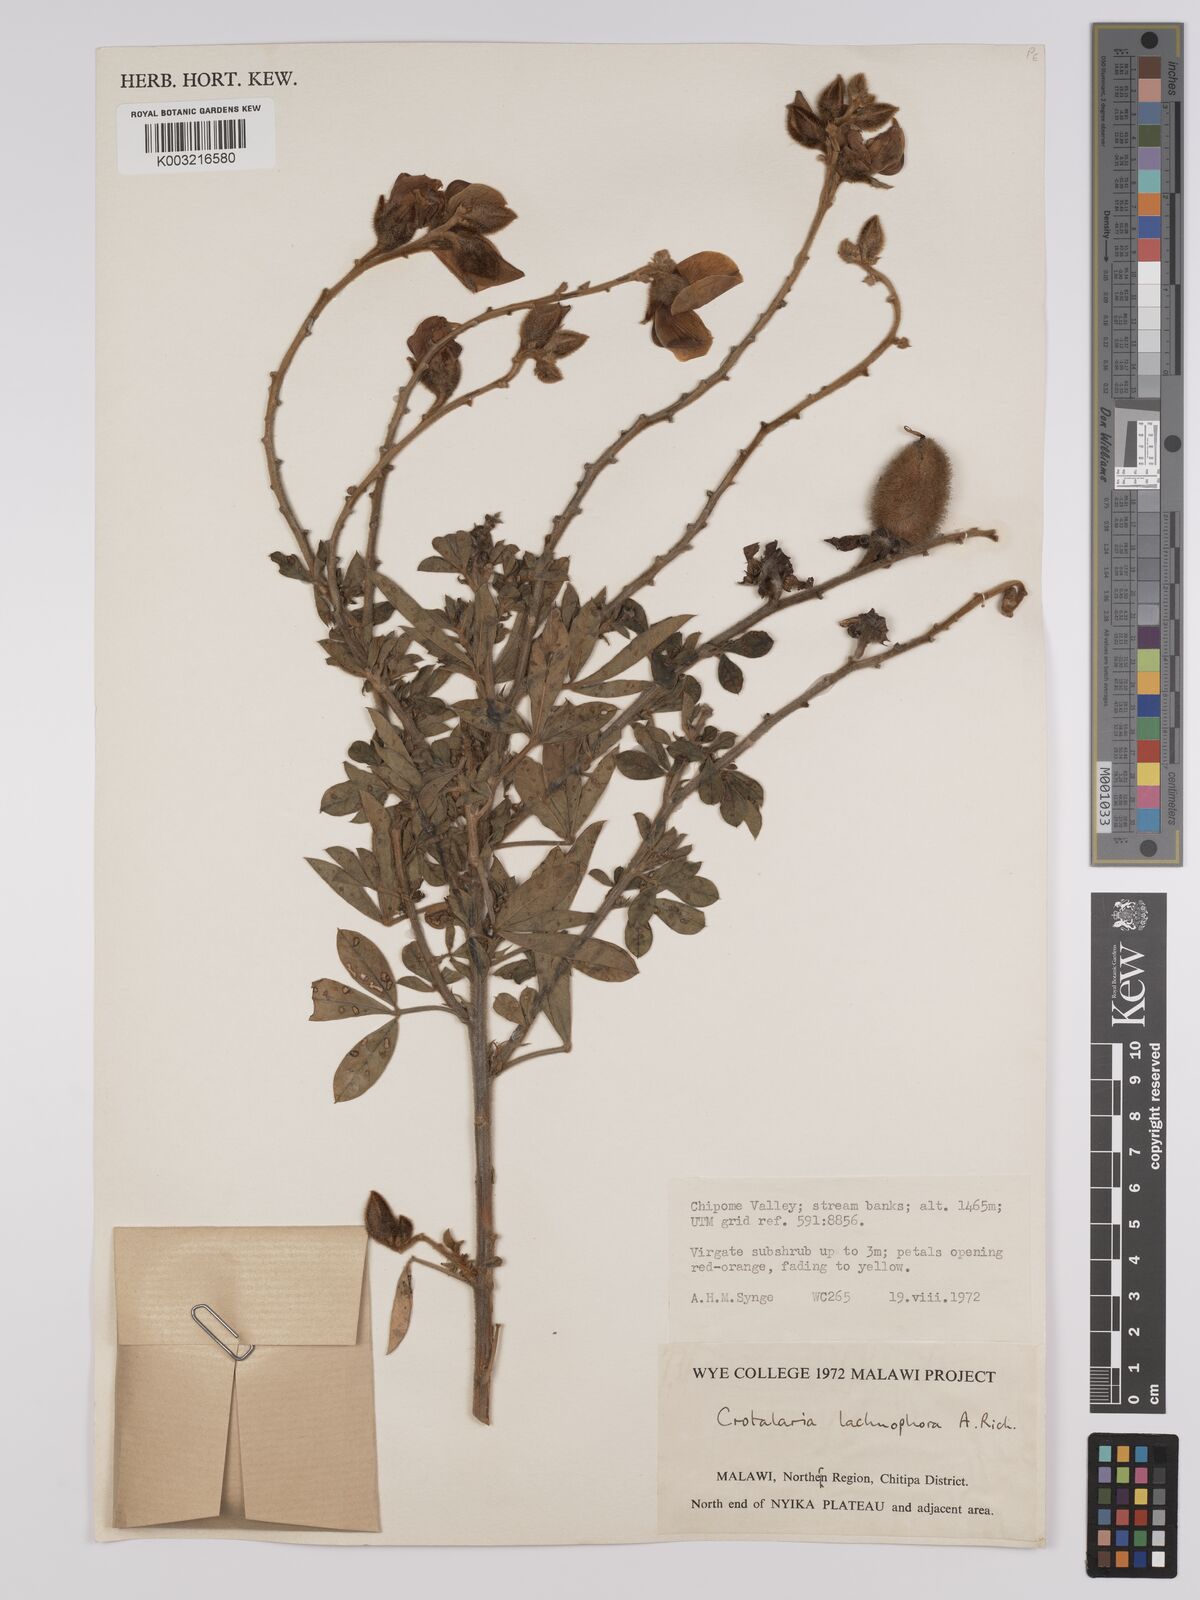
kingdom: Plantae
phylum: Tracheophyta
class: Magnoliopsida
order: Fabales
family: Fabaceae
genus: Crotalaria
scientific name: Crotalaria lachnophora
